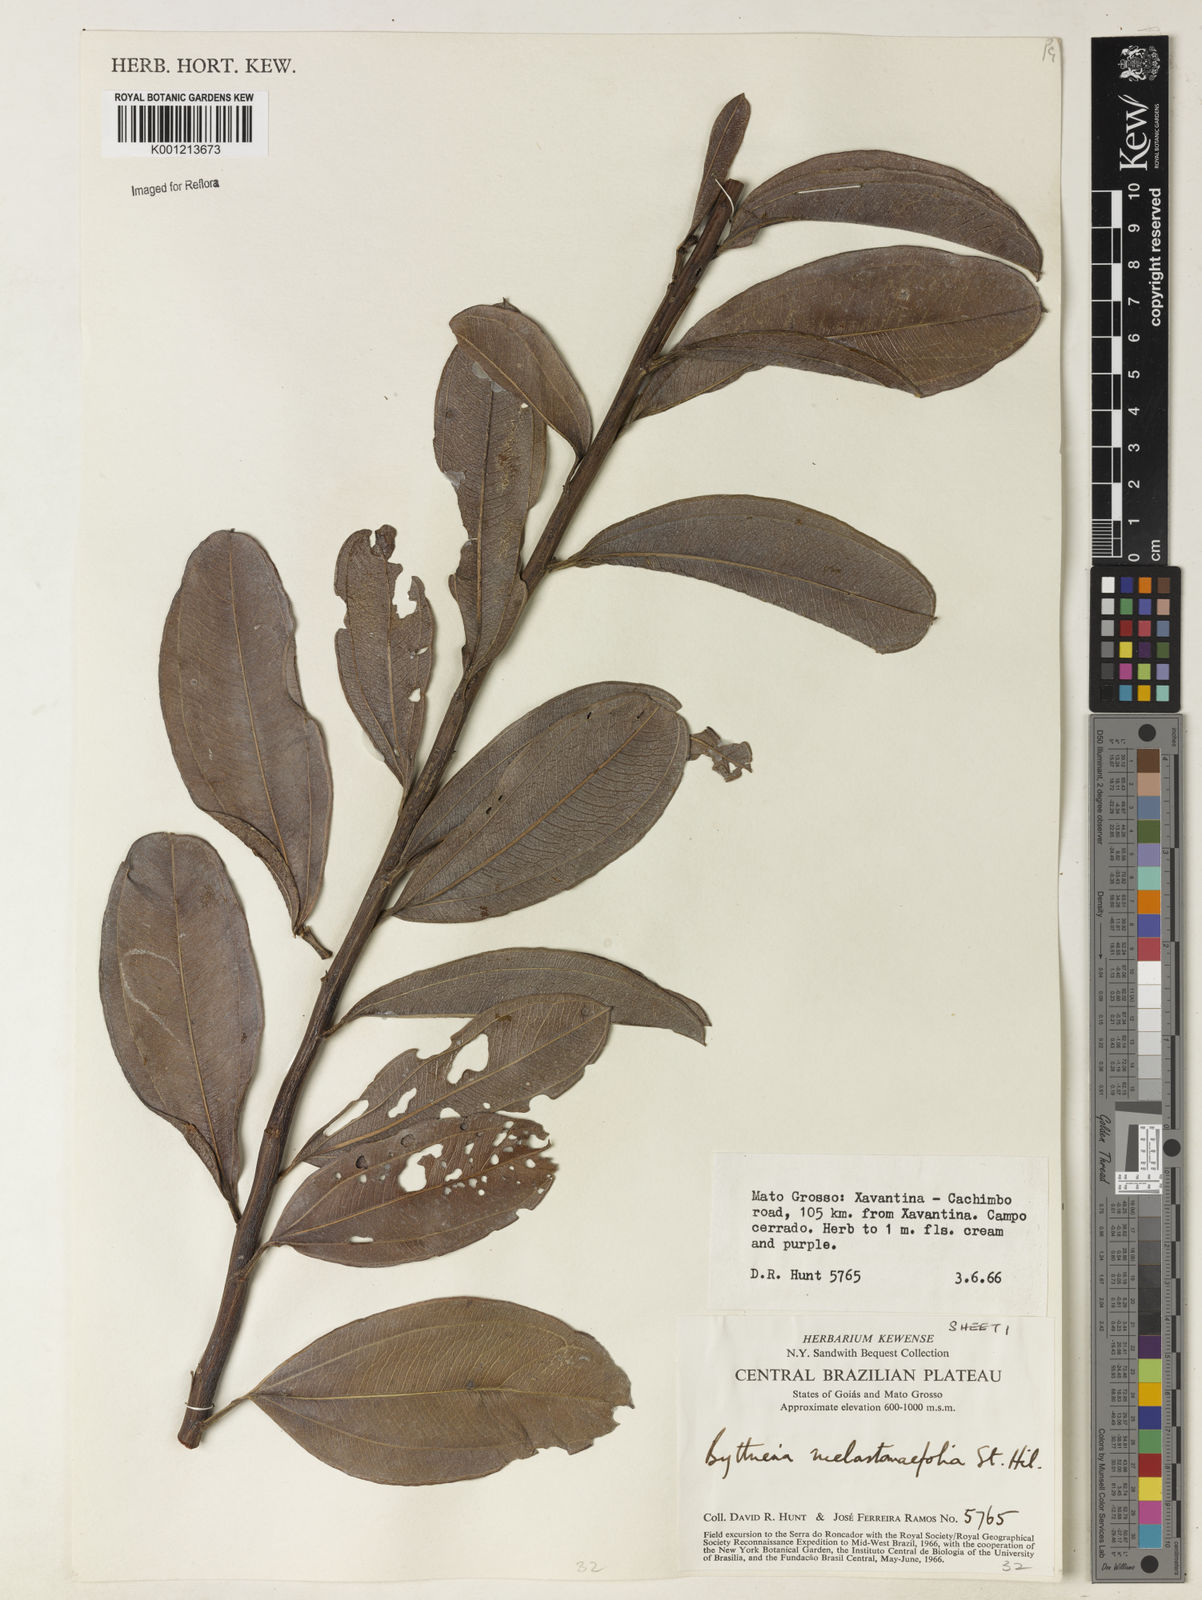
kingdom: Plantae
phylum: Tracheophyta
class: Magnoliopsida
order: Malvales
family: Malvaceae
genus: Byttneria
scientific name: Byttneria melastomifolia
